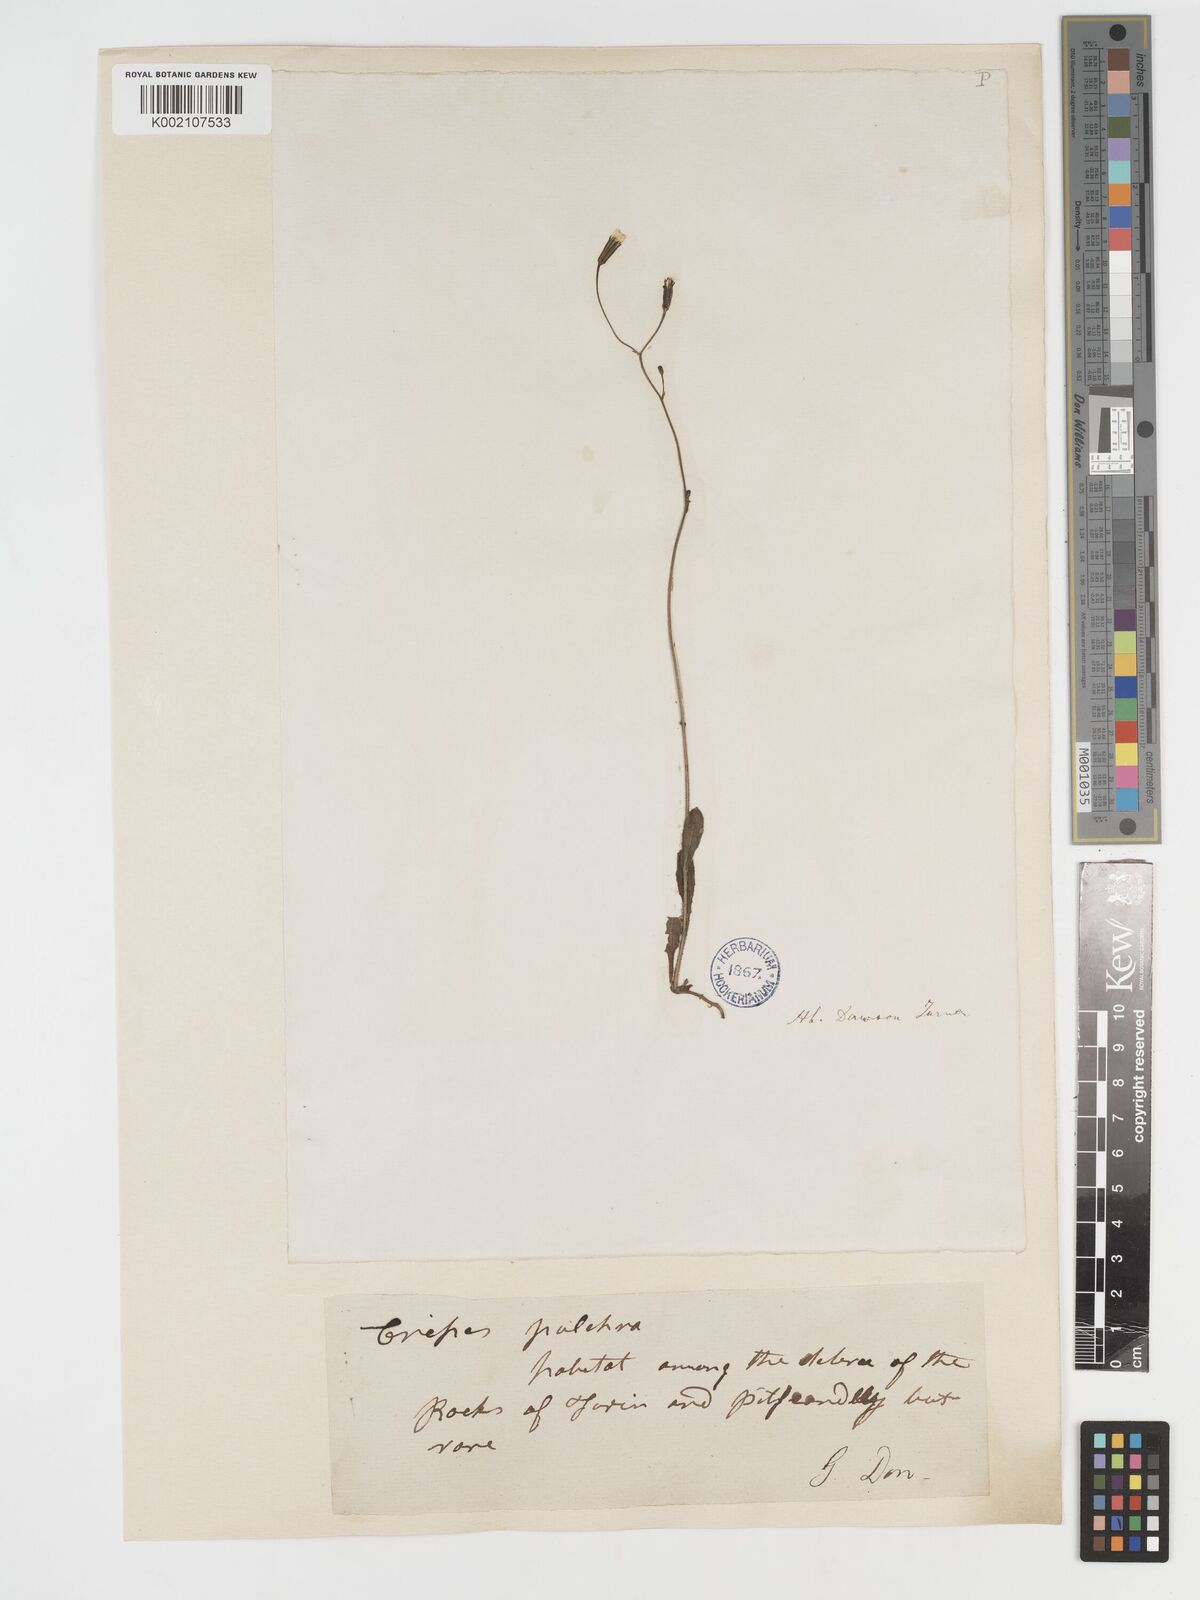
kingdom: Plantae
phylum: Tracheophyta
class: Magnoliopsida
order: Asterales
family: Asteraceae
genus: Crepis
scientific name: Crepis pulchra
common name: Hawk's-beard
